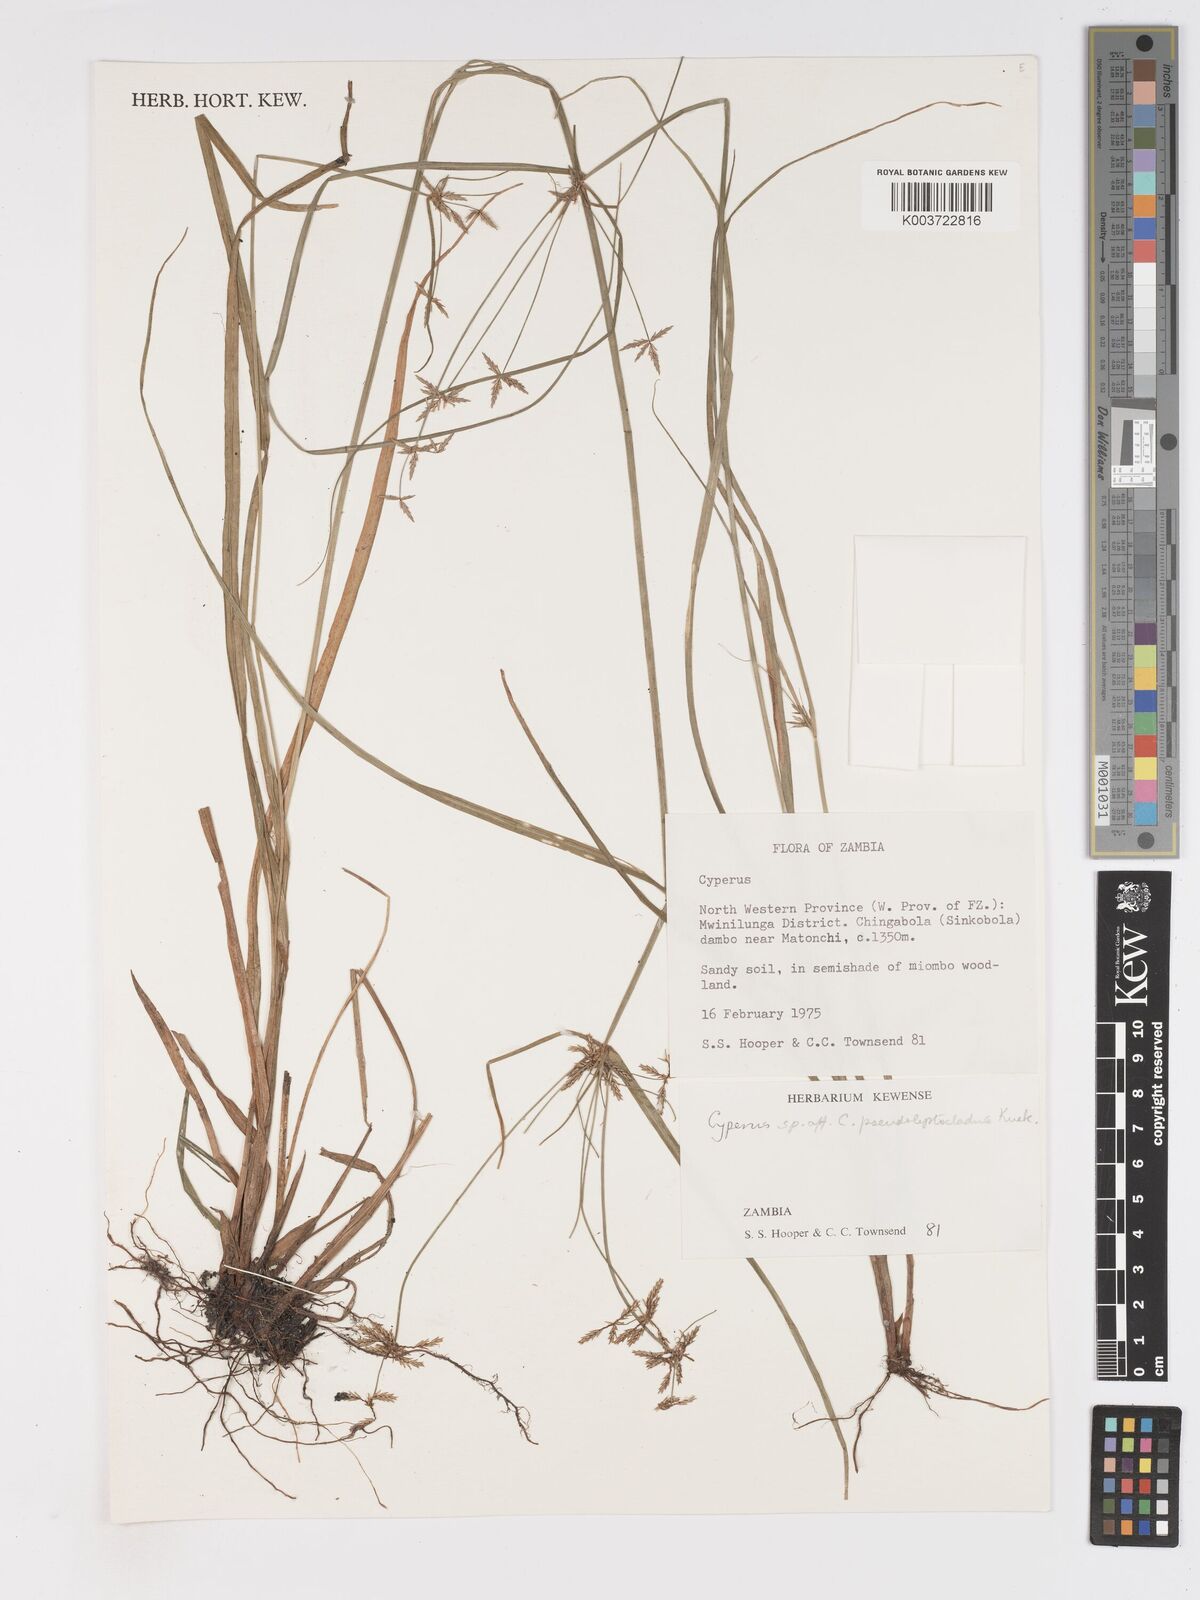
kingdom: Plantae
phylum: Tracheophyta
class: Liliopsida
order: Poales
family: Cyperaceae
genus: Cyperus
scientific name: Cyperus glaucophyllus
